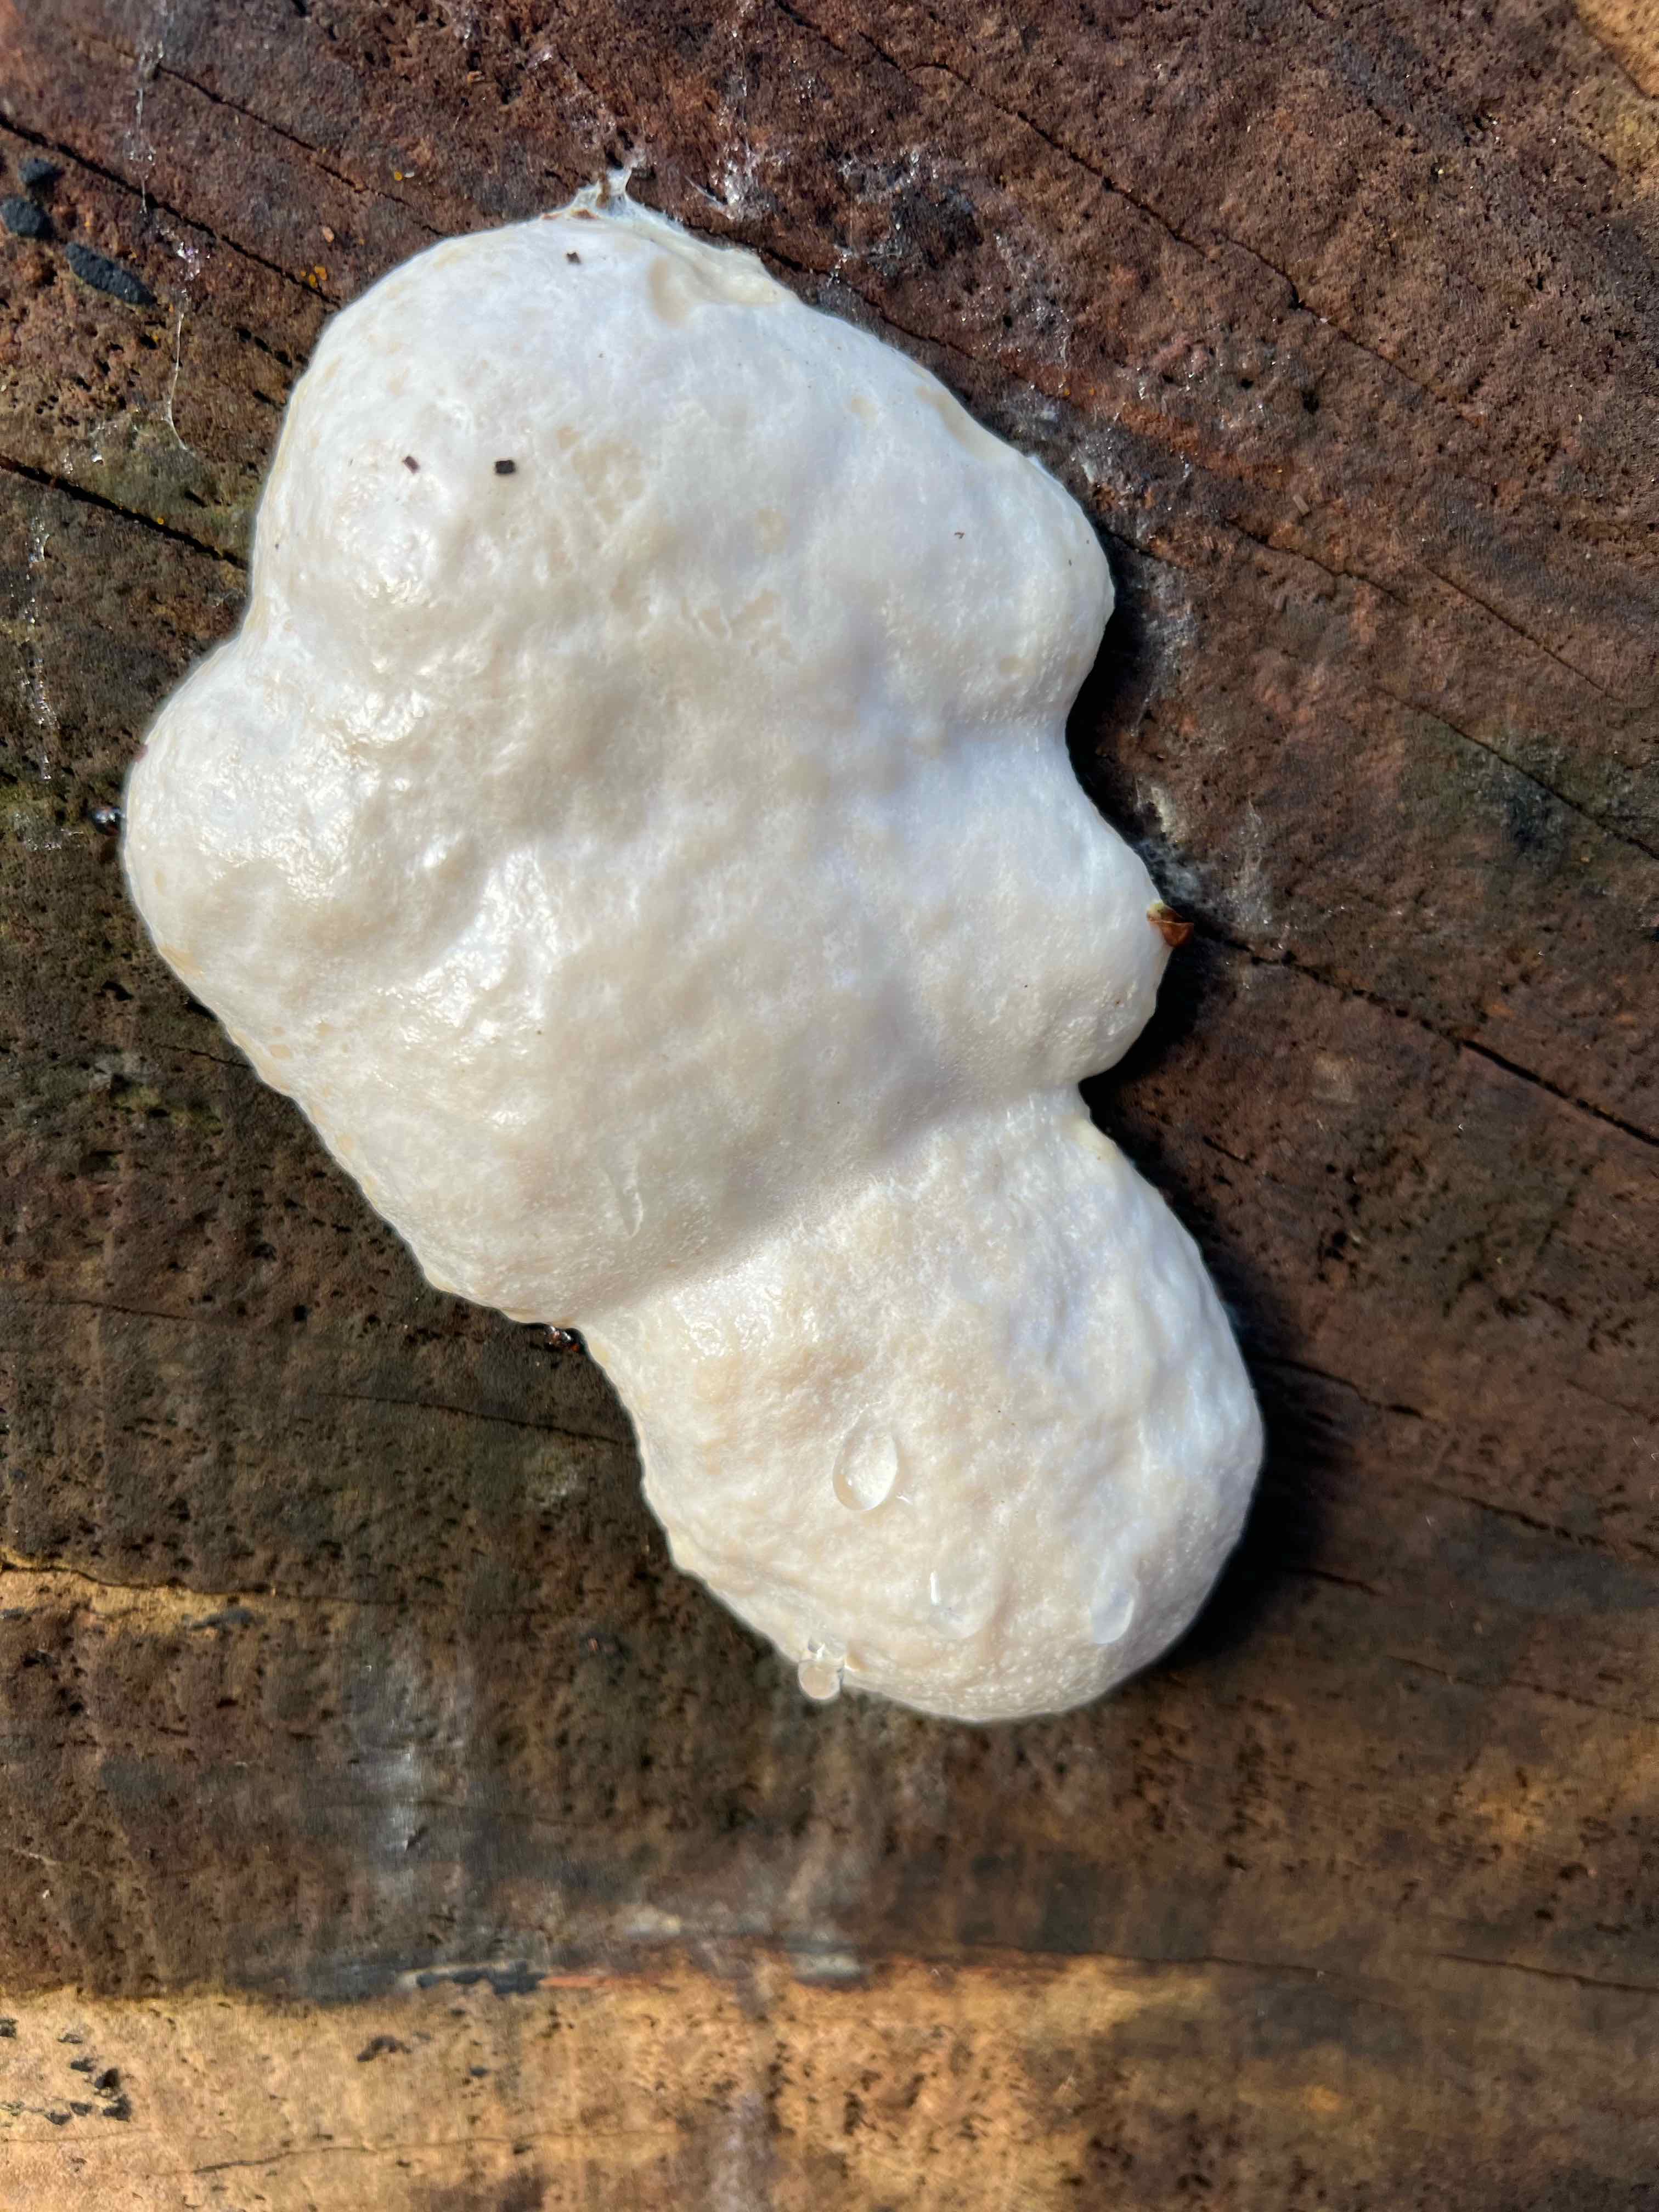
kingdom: Protozoa
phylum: Mycetozoa
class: Myxomycetes
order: Cribrariales
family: Tubiferaceae
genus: Reticularia
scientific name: Reticularia lycoperdon
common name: skinnende støvpude
